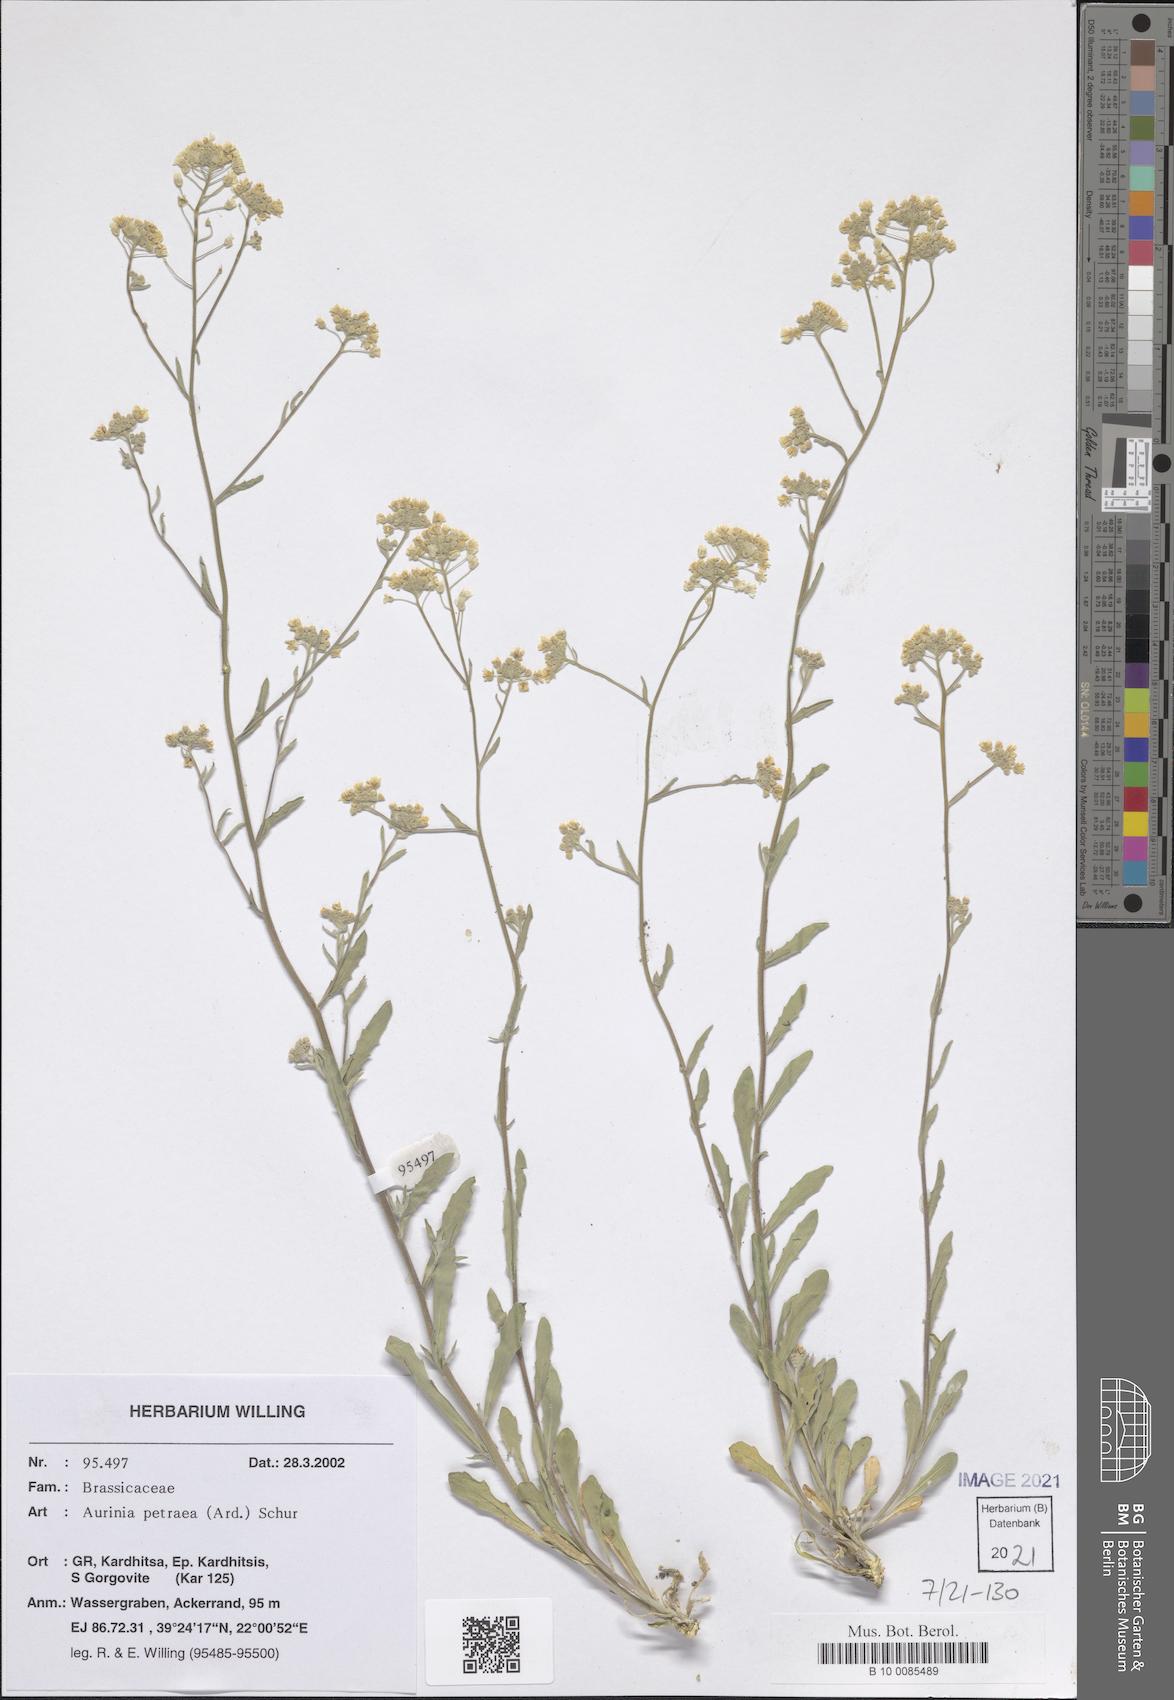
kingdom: Plantae
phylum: Tracheophyta
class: Magnoliopsida
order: Brassicales
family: Brassicaceae
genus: Aurinia
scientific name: Aurinia petraea
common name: Goldentuft
